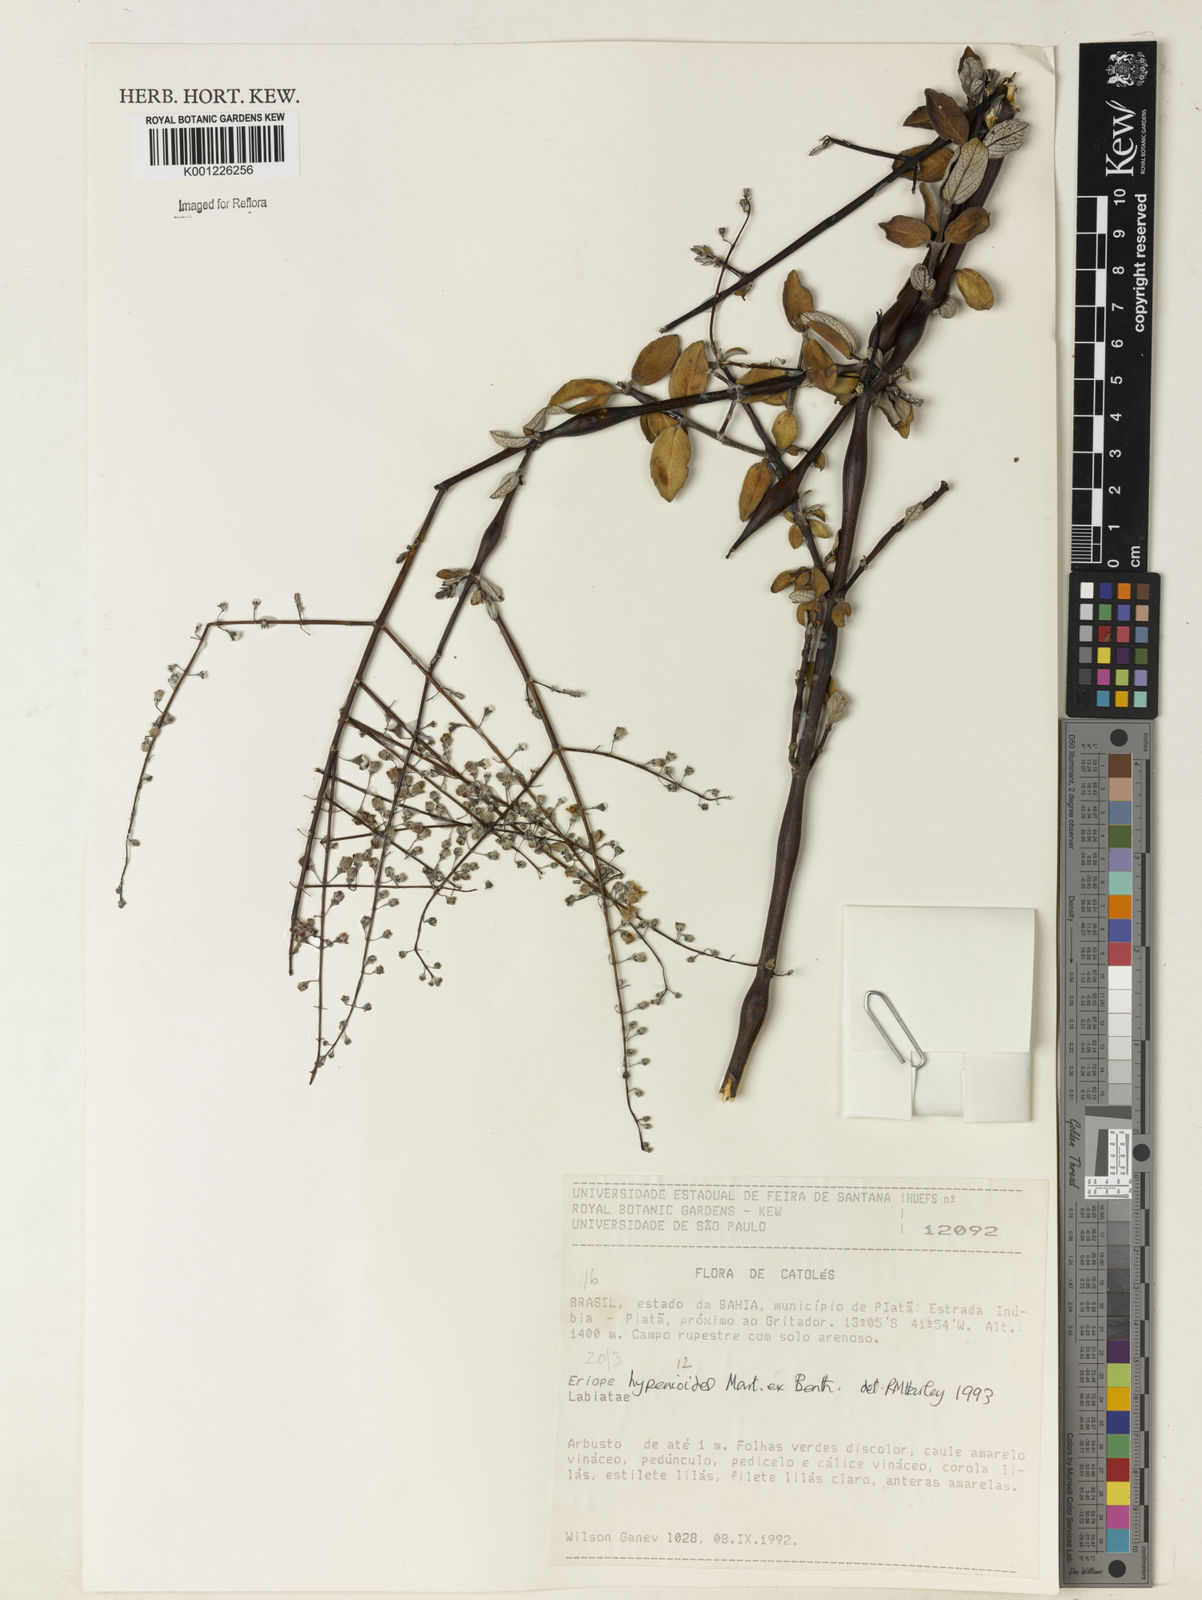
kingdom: Plantae
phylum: Tracheophyta
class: Magnoliopsida
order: Lamiales
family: Lamiaceae
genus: Eriope
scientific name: Eriope hypenioides
